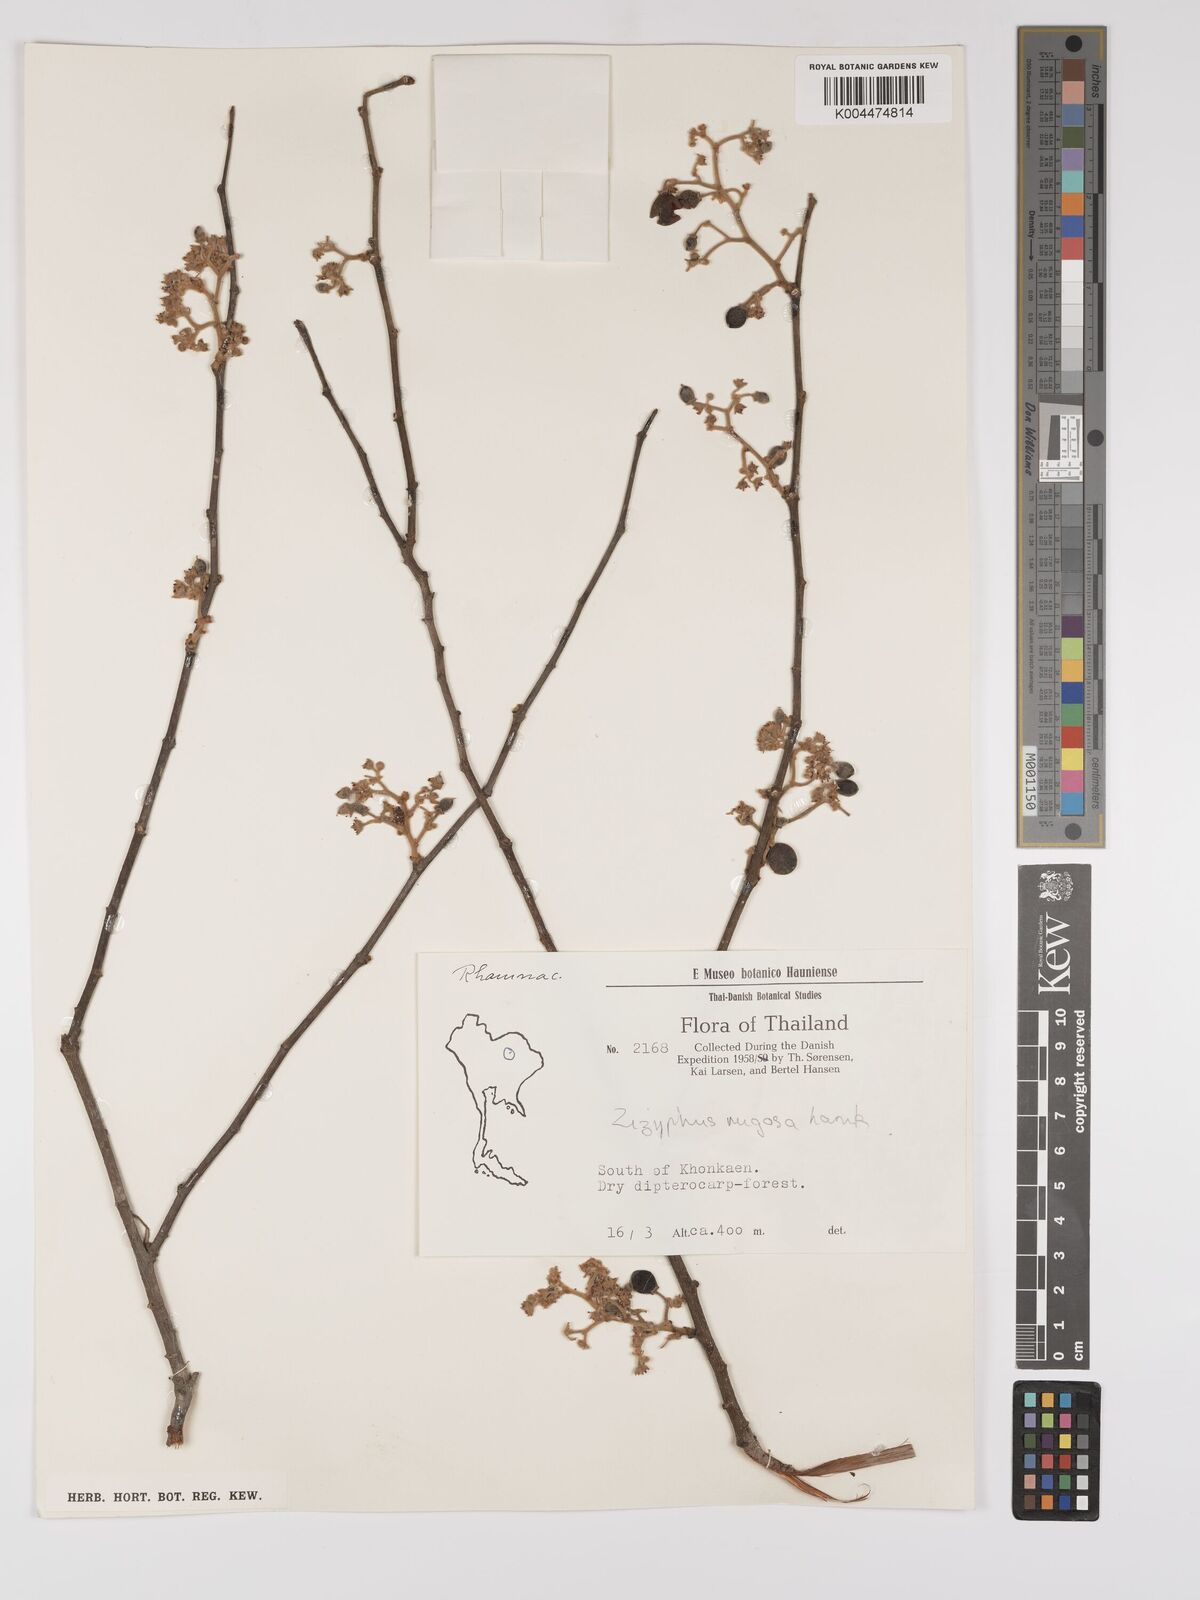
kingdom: Plantae
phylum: Tracheophyta
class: Magnoliopsida
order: Rosales
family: Rhamnaceae
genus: Ziziphus
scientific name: Ziziphus rugosa
